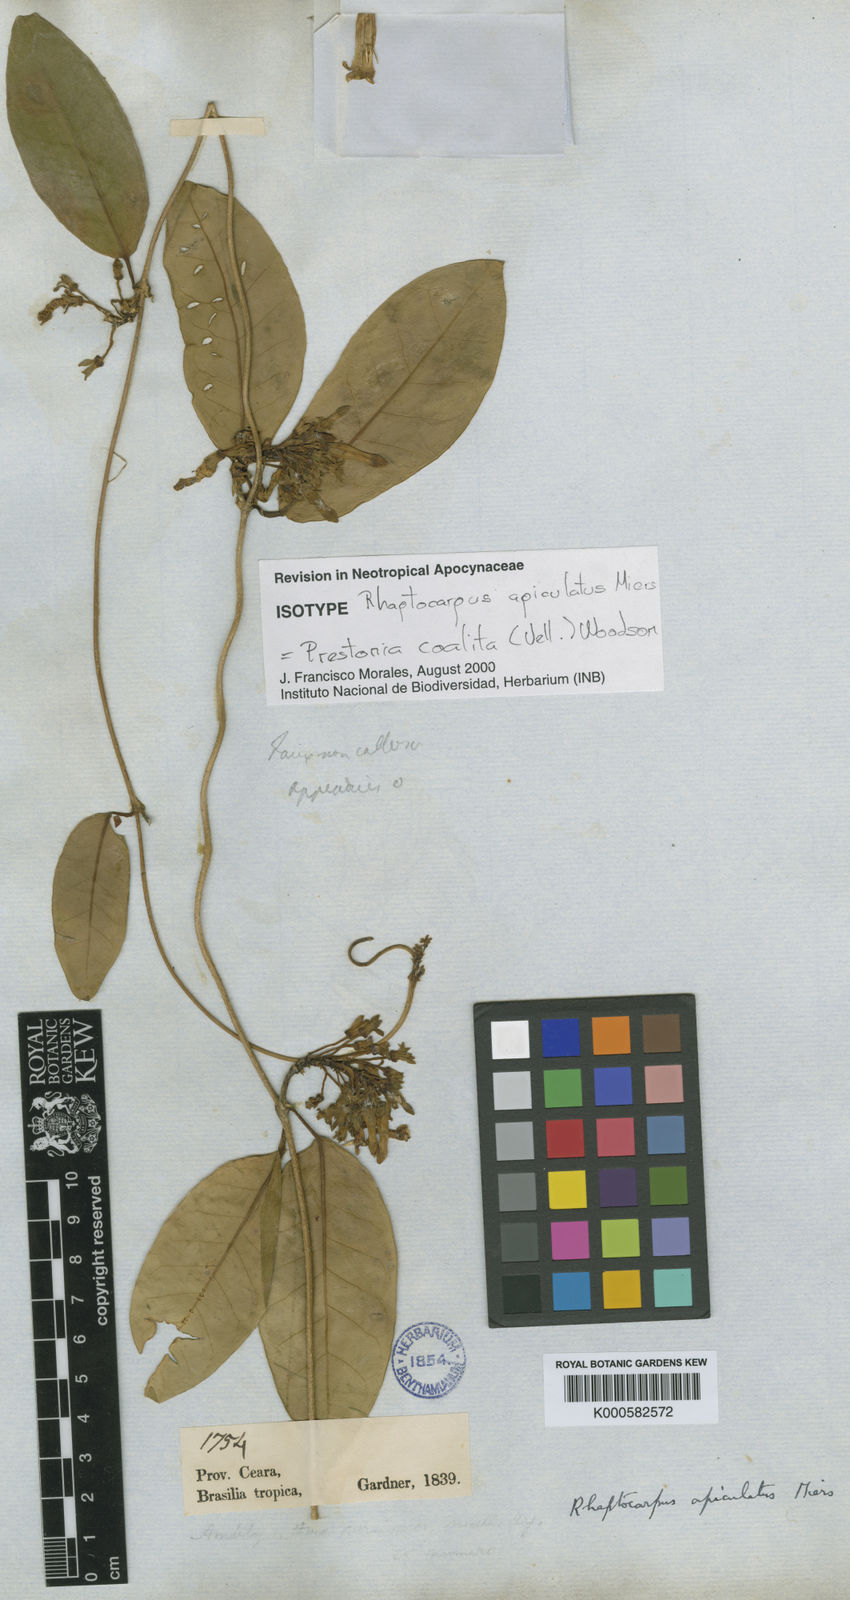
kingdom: Plantae
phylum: Tracheophyta
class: Magnoliopsida
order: Gentianales
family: Apocynaceae
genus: Prestonia
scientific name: Prestonia coalita
